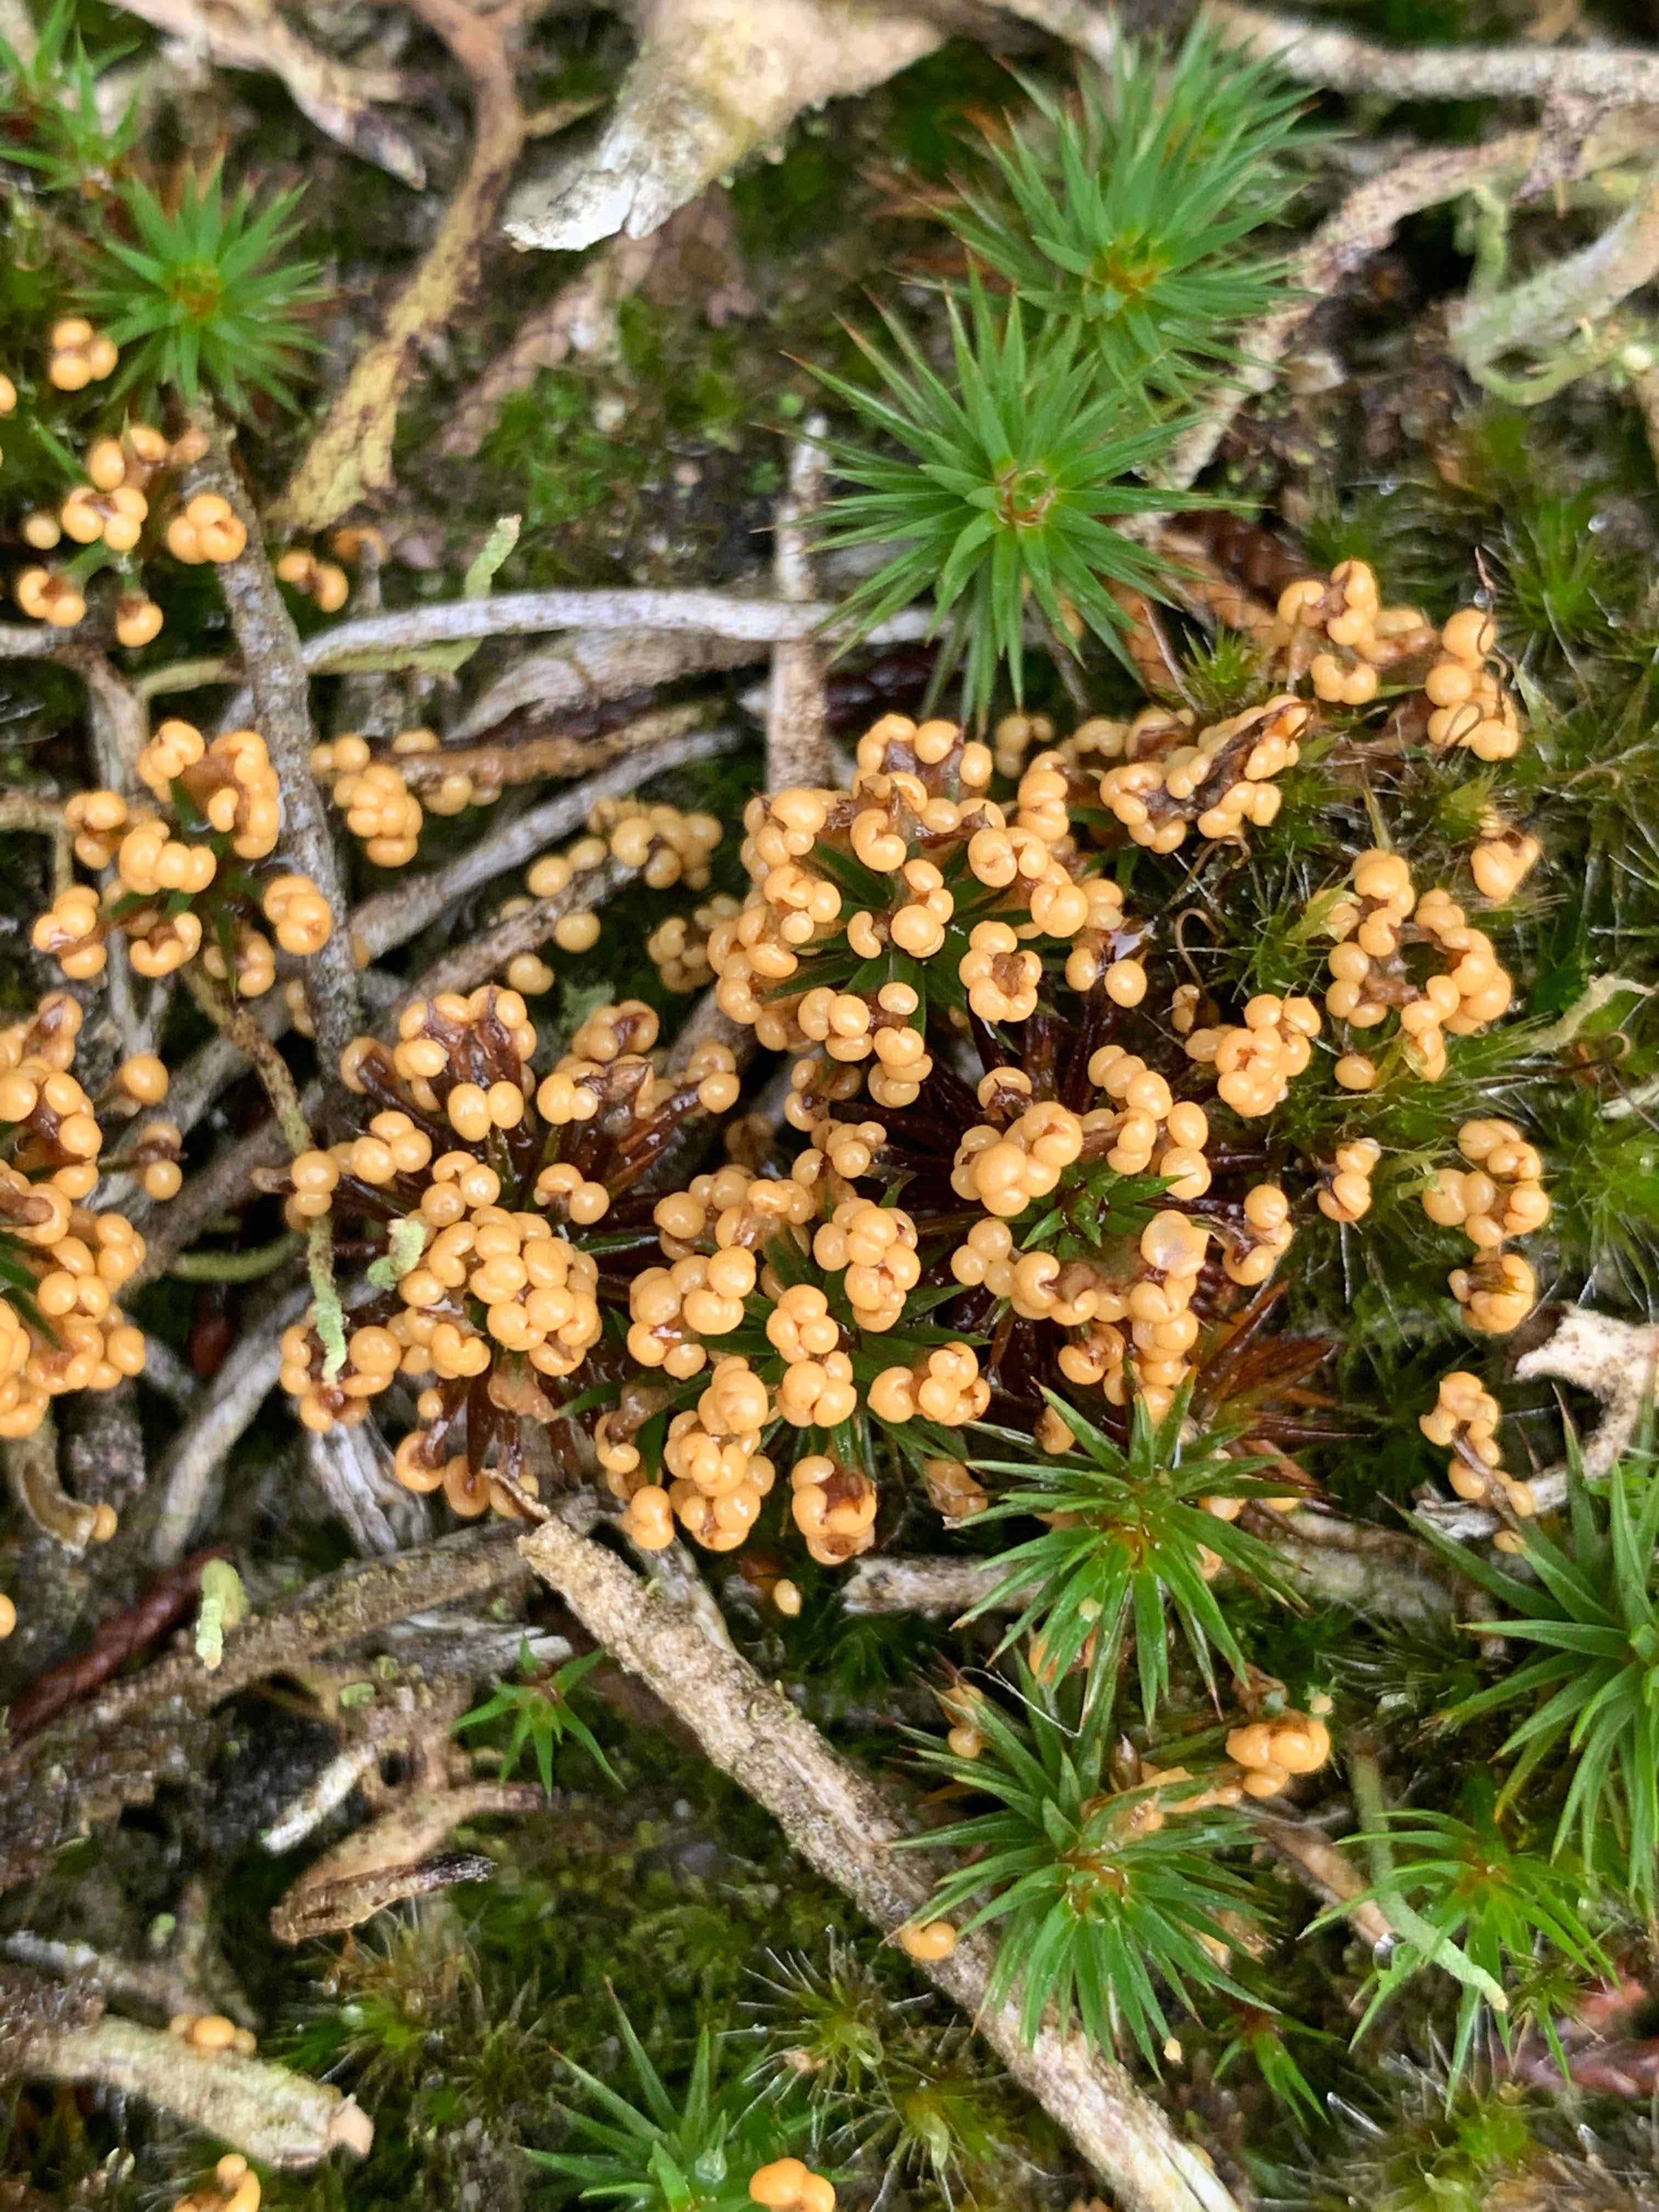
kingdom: Protozoa
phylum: Mycetozoa
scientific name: Mycetozoa
